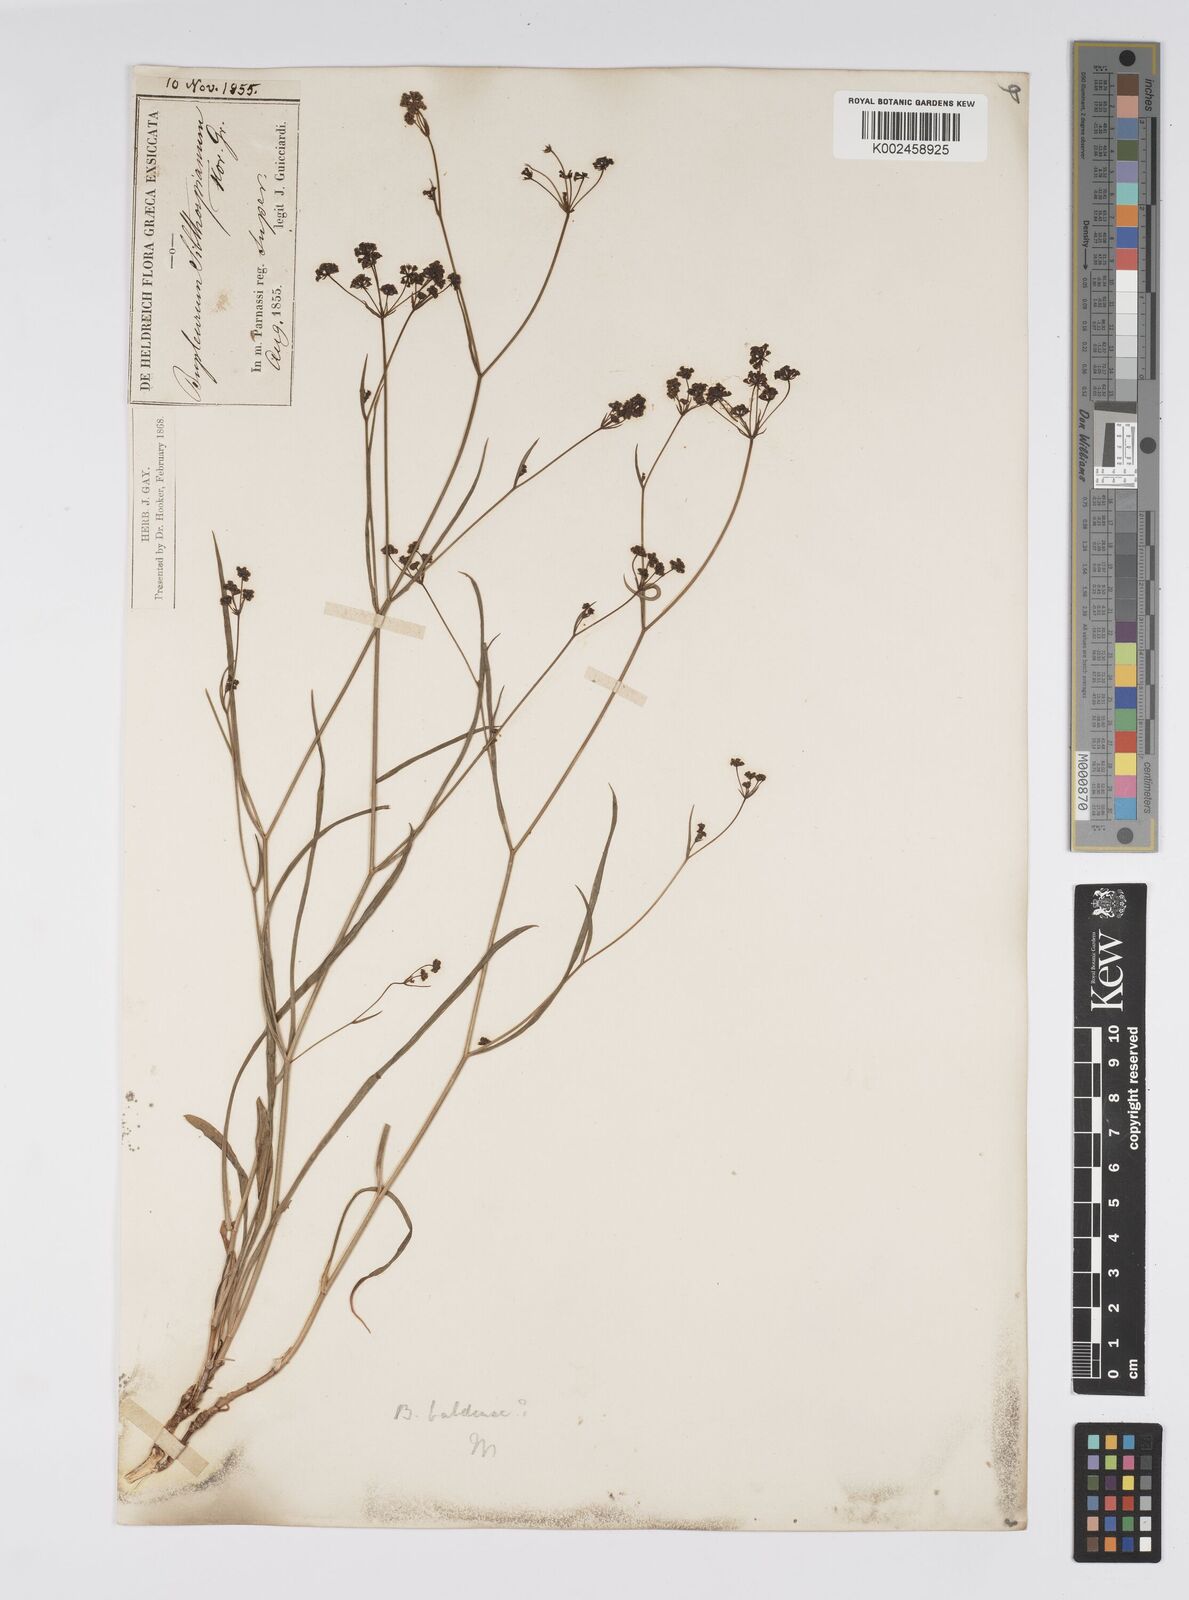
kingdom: Plantae
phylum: Tracheophyta
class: Magnoliopsida
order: Apiales
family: Apiaceae
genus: Bupleurum
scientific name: Bupleurum falcatum
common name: Sickle-leaved hare's-ear
